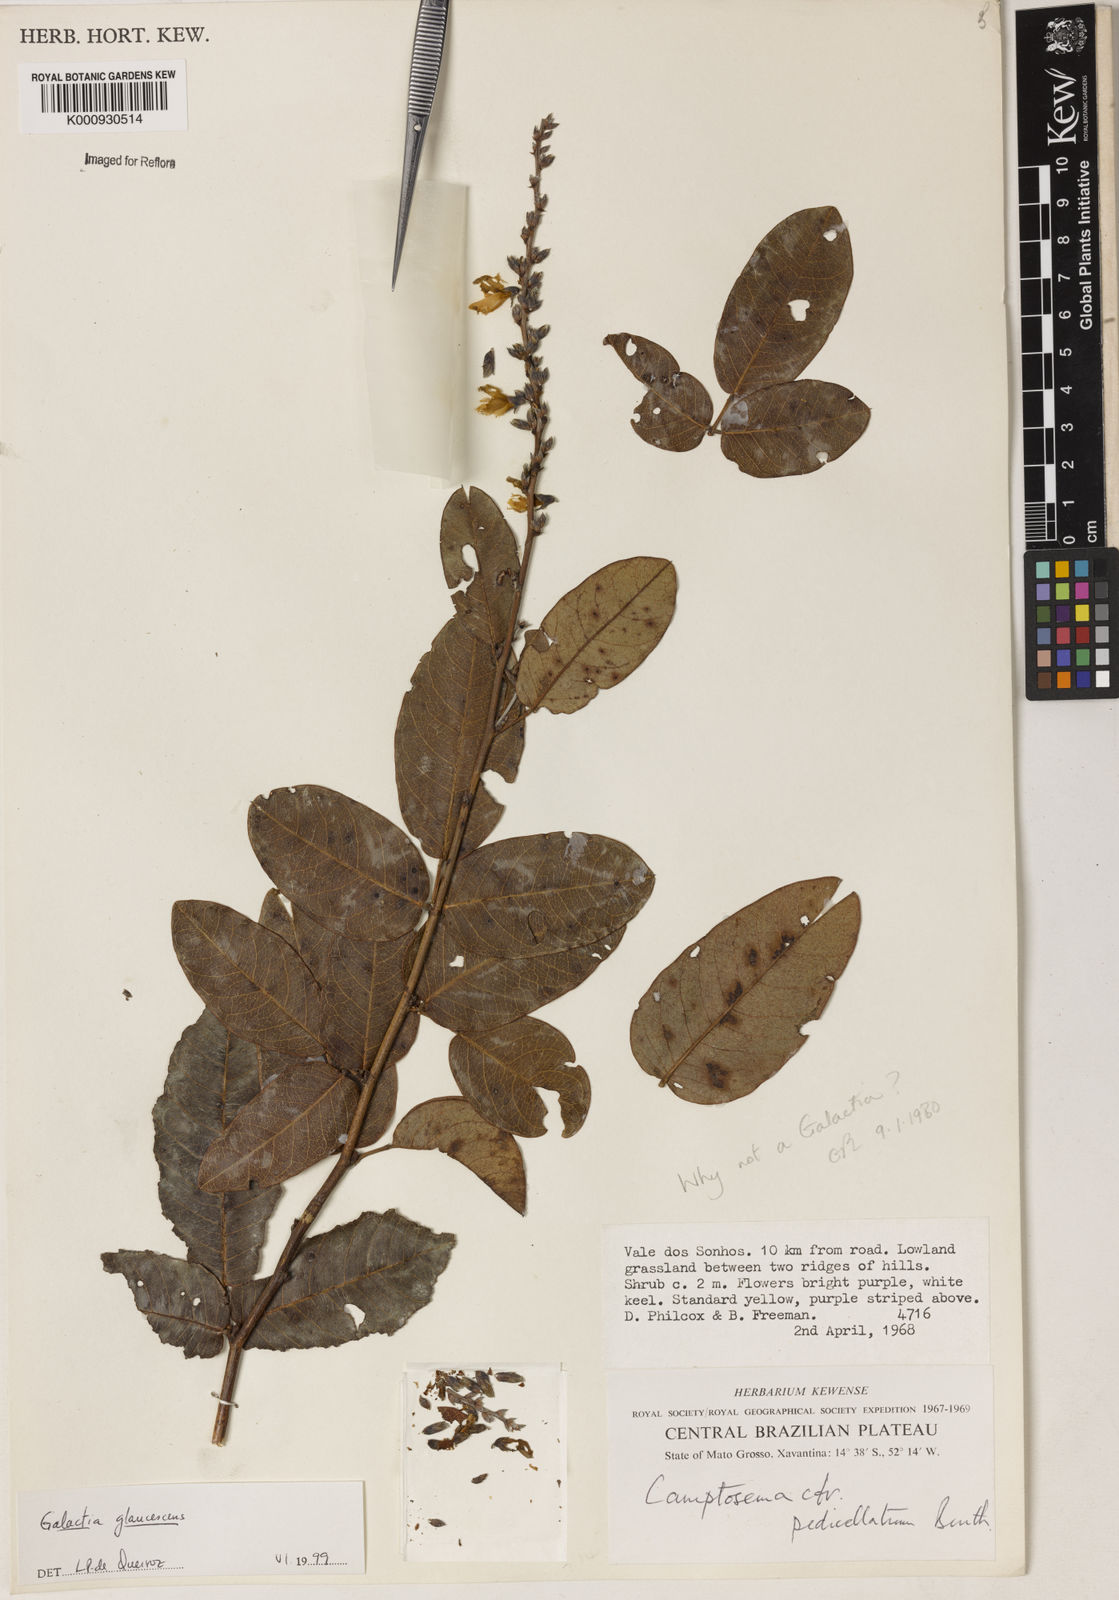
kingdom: Plantae
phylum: Tracheophyta
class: Magnoliopsida
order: Fabales
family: Fabaceae
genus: Galactia
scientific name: Galactia glaucescens
